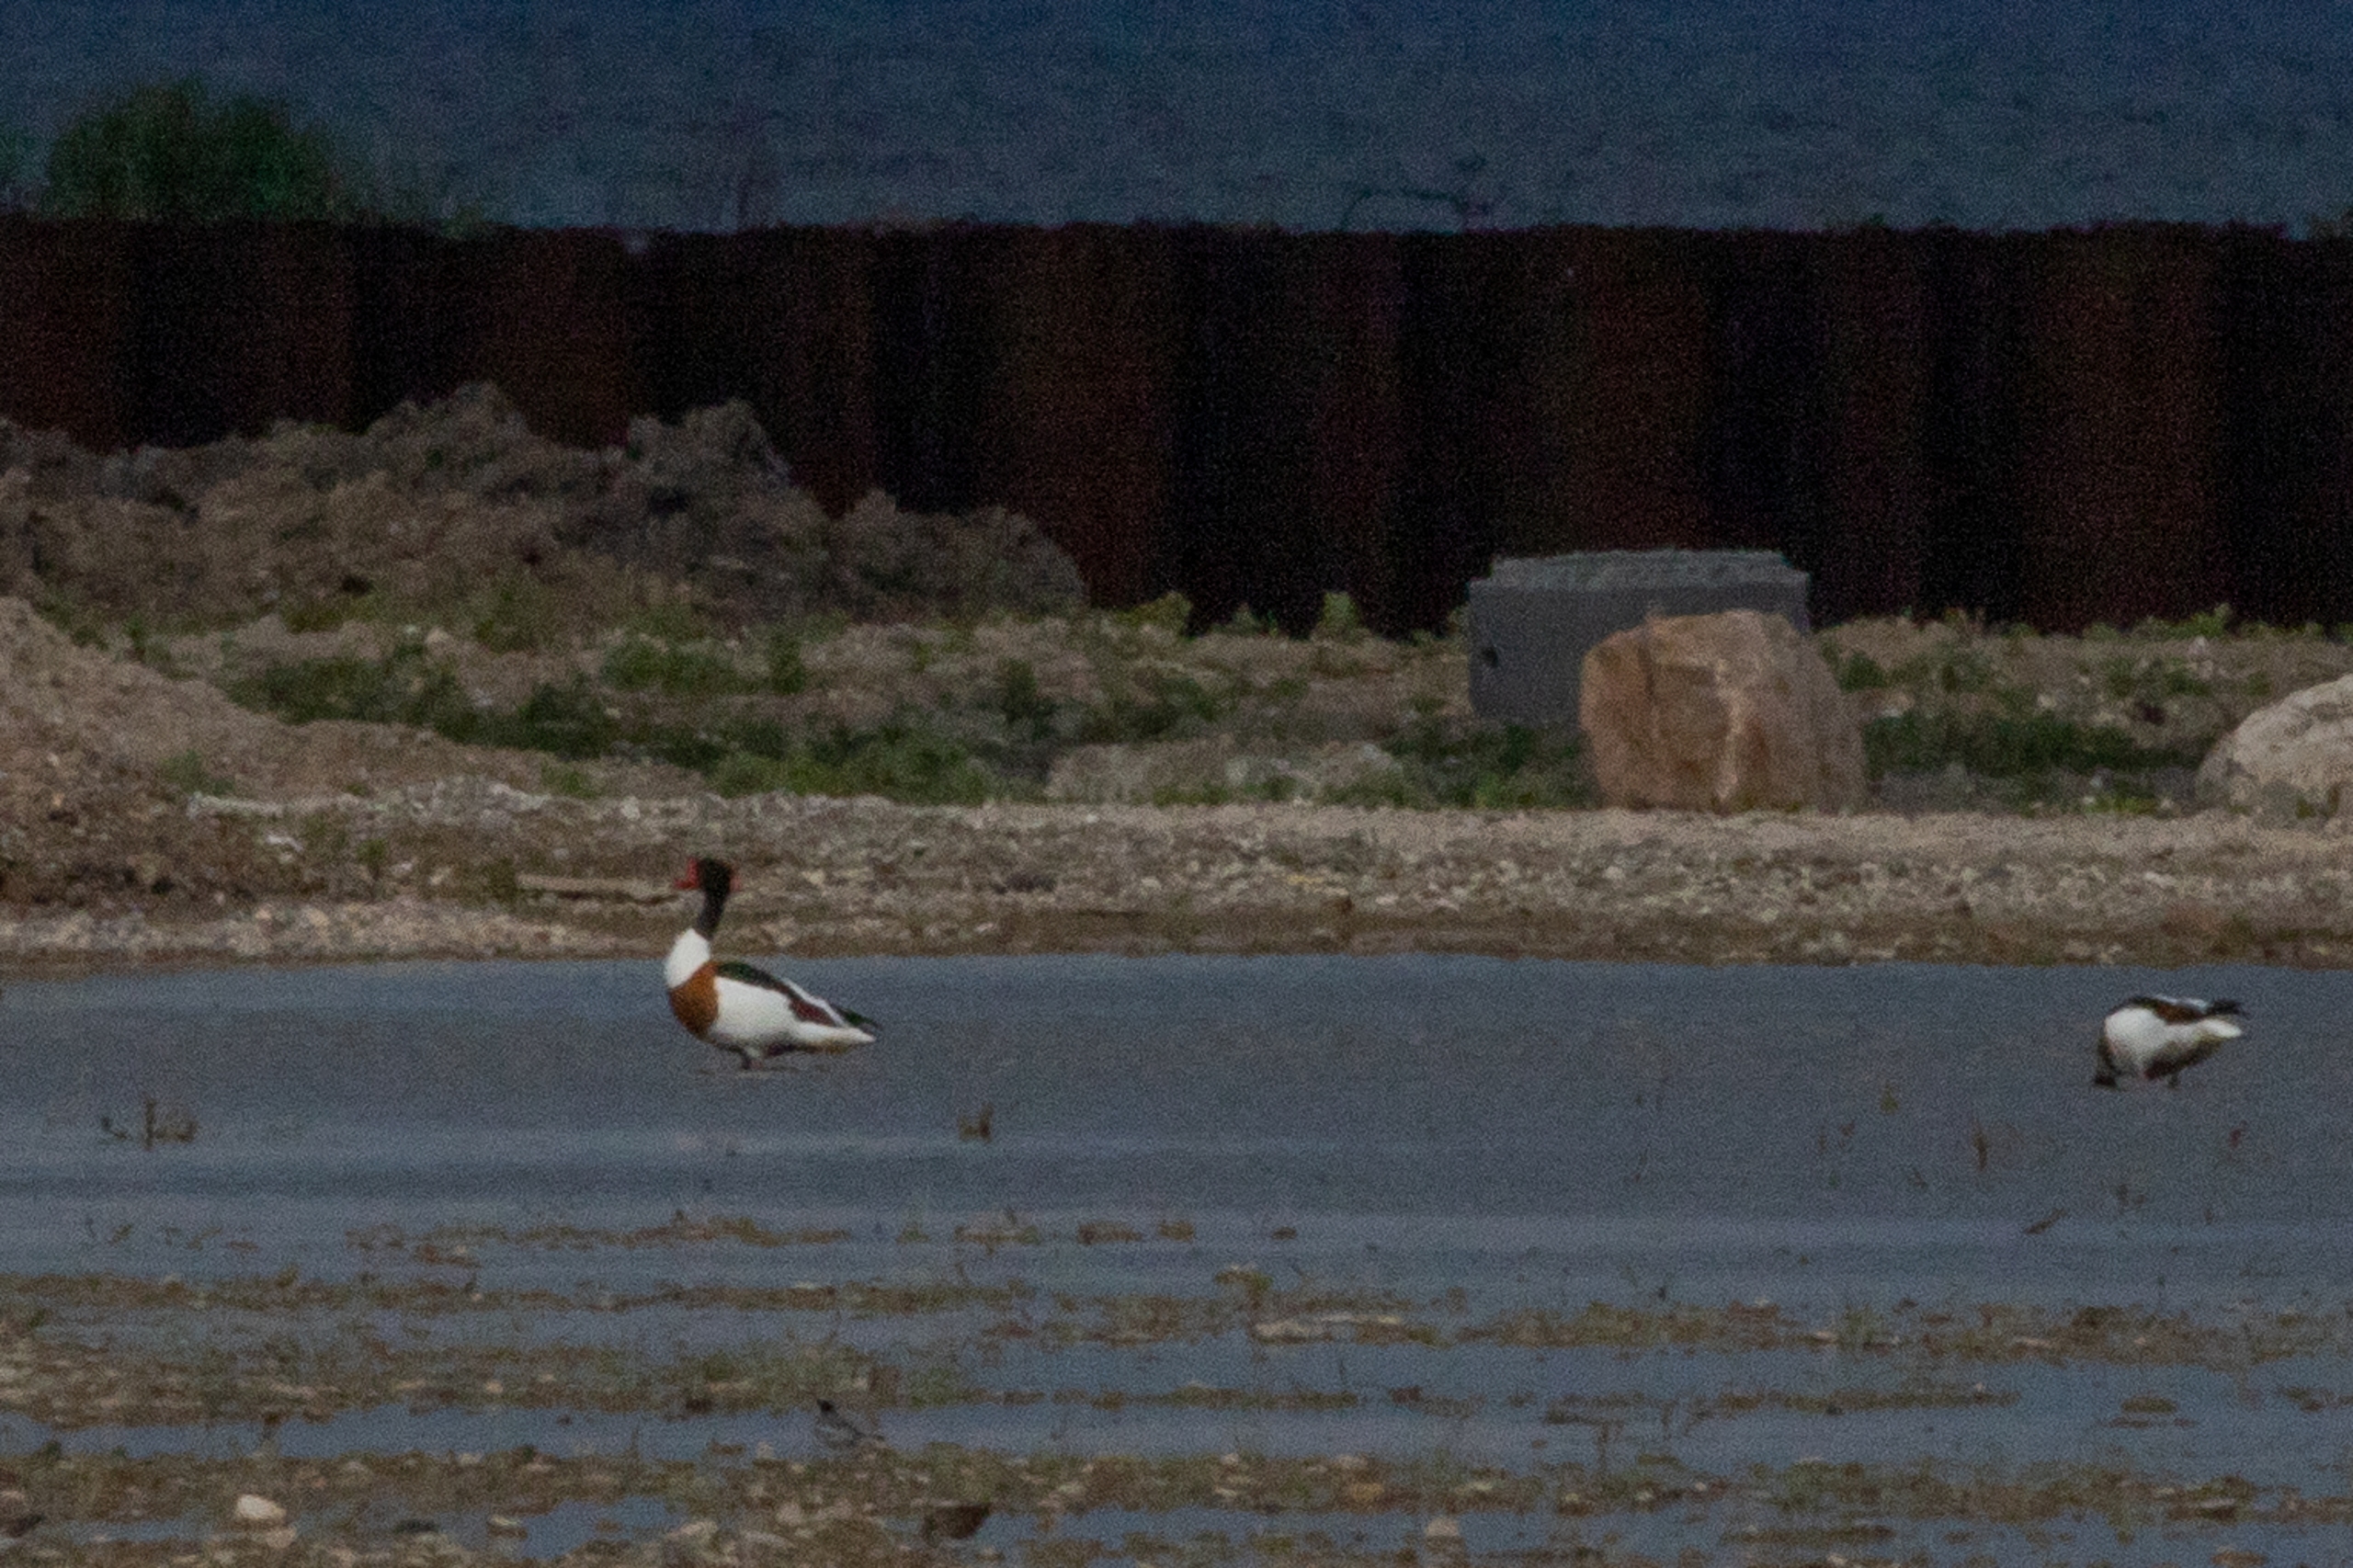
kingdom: Animalia
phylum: Chordata
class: Aves
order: Anseriformes
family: Anatidae
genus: Tadorna
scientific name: Tadorna tadorna
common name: Gravand
